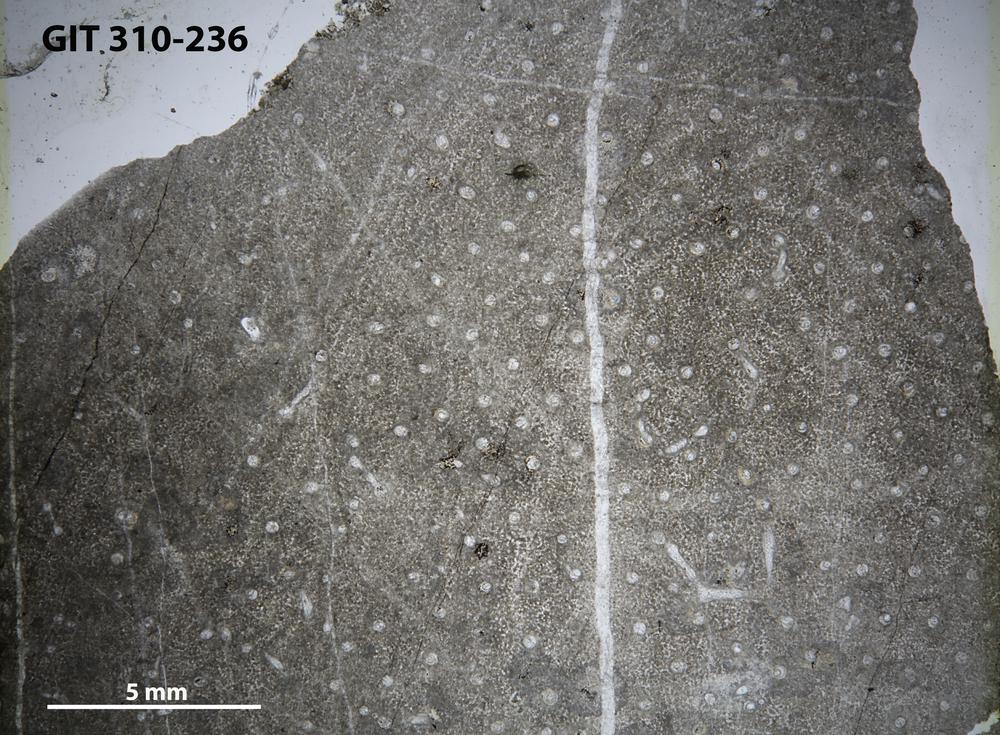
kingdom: Animalia
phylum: Porifera
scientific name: Porifera
